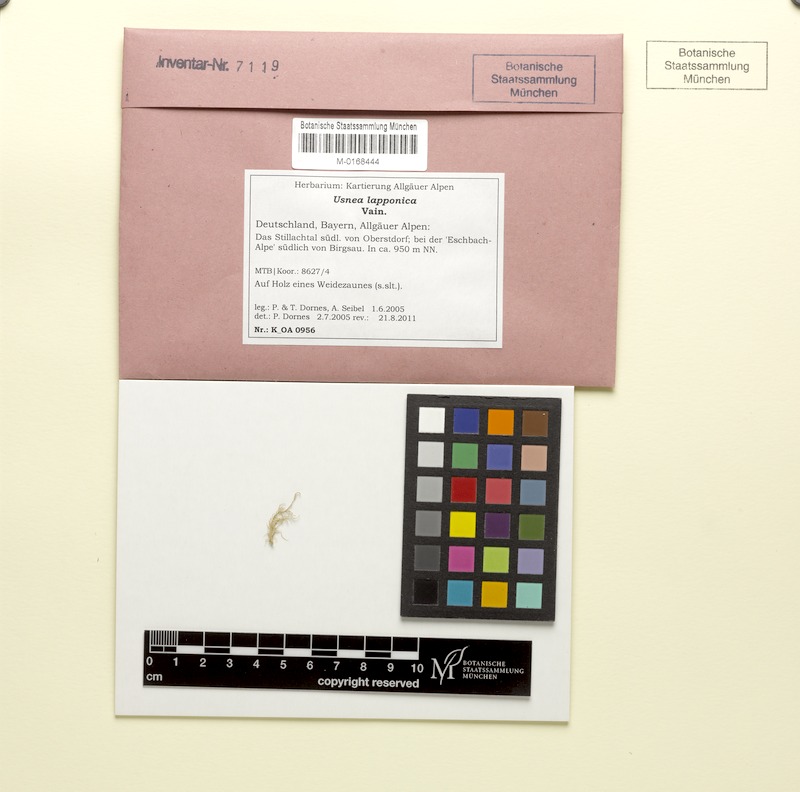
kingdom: Fungi
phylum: Ascomycota
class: Lecanoromycetes
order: Lecanorales
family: Parmeliaceae
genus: Usnea
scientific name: Usnea lapponica
